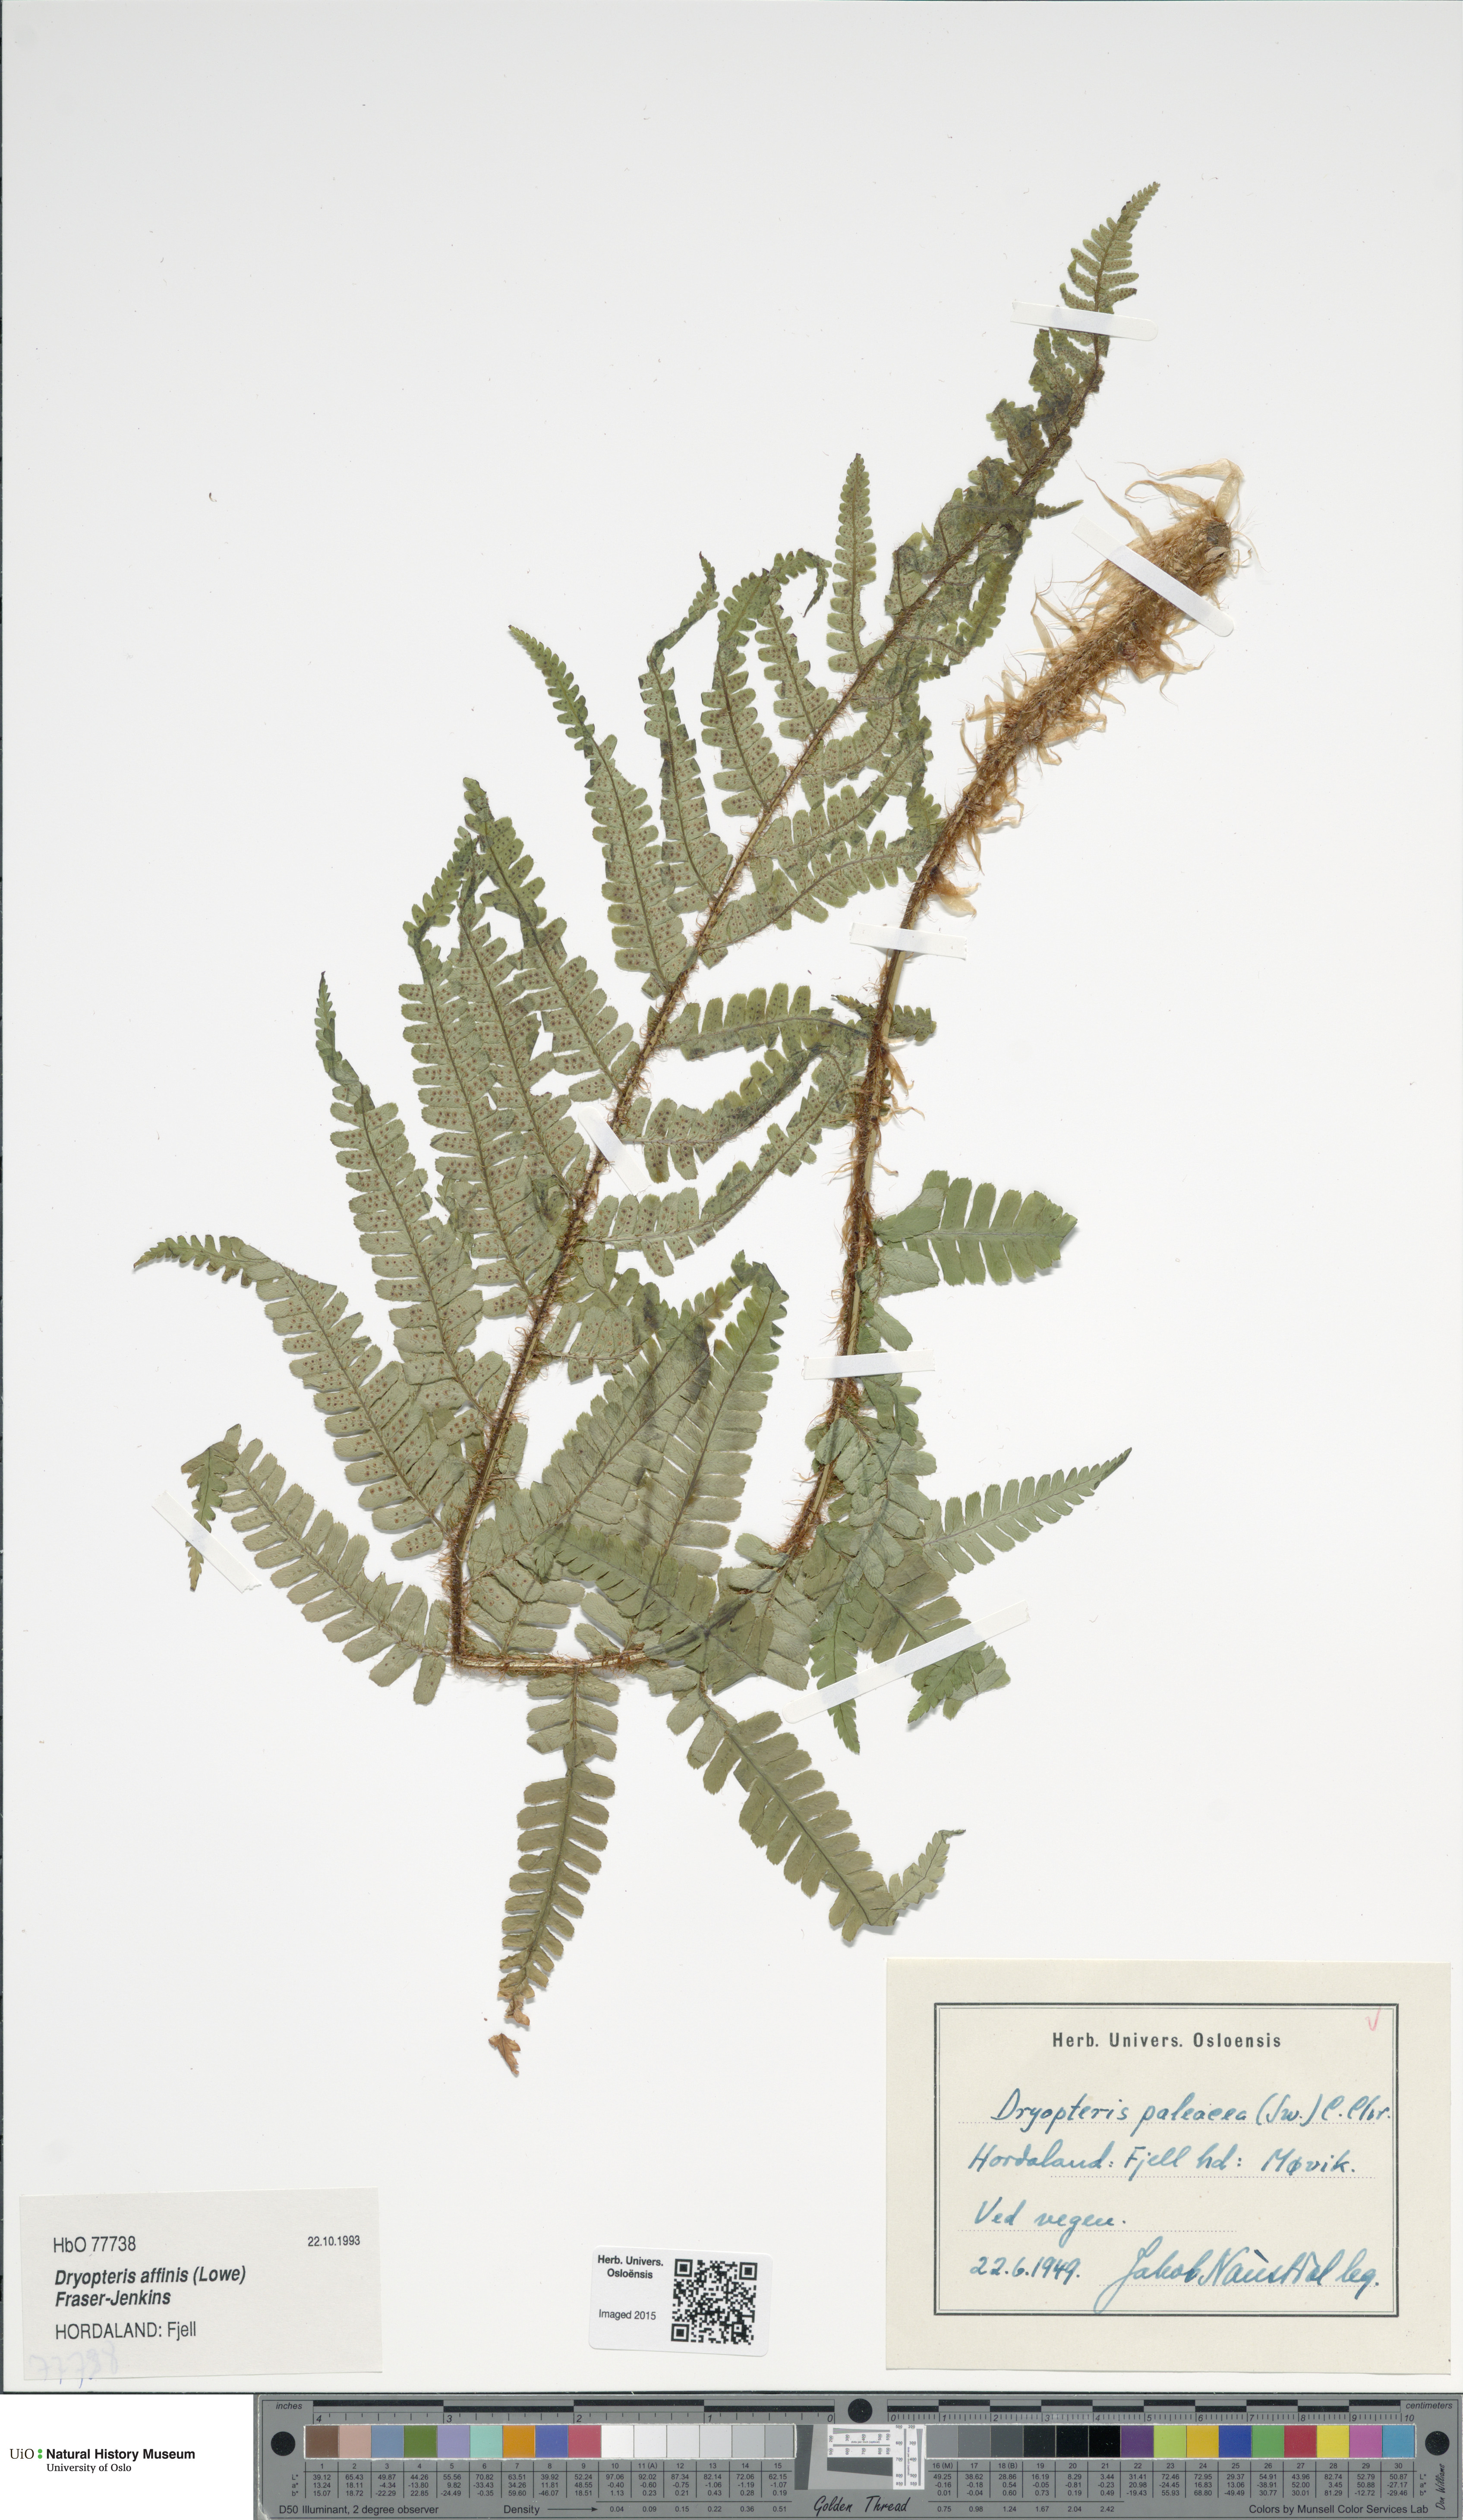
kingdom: Plantae
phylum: Tracheophyta
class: Polypodiopsida
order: Polypodiales
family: Dryopteridaceae
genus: Dryopteris
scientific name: Dryopteris wallichiana
